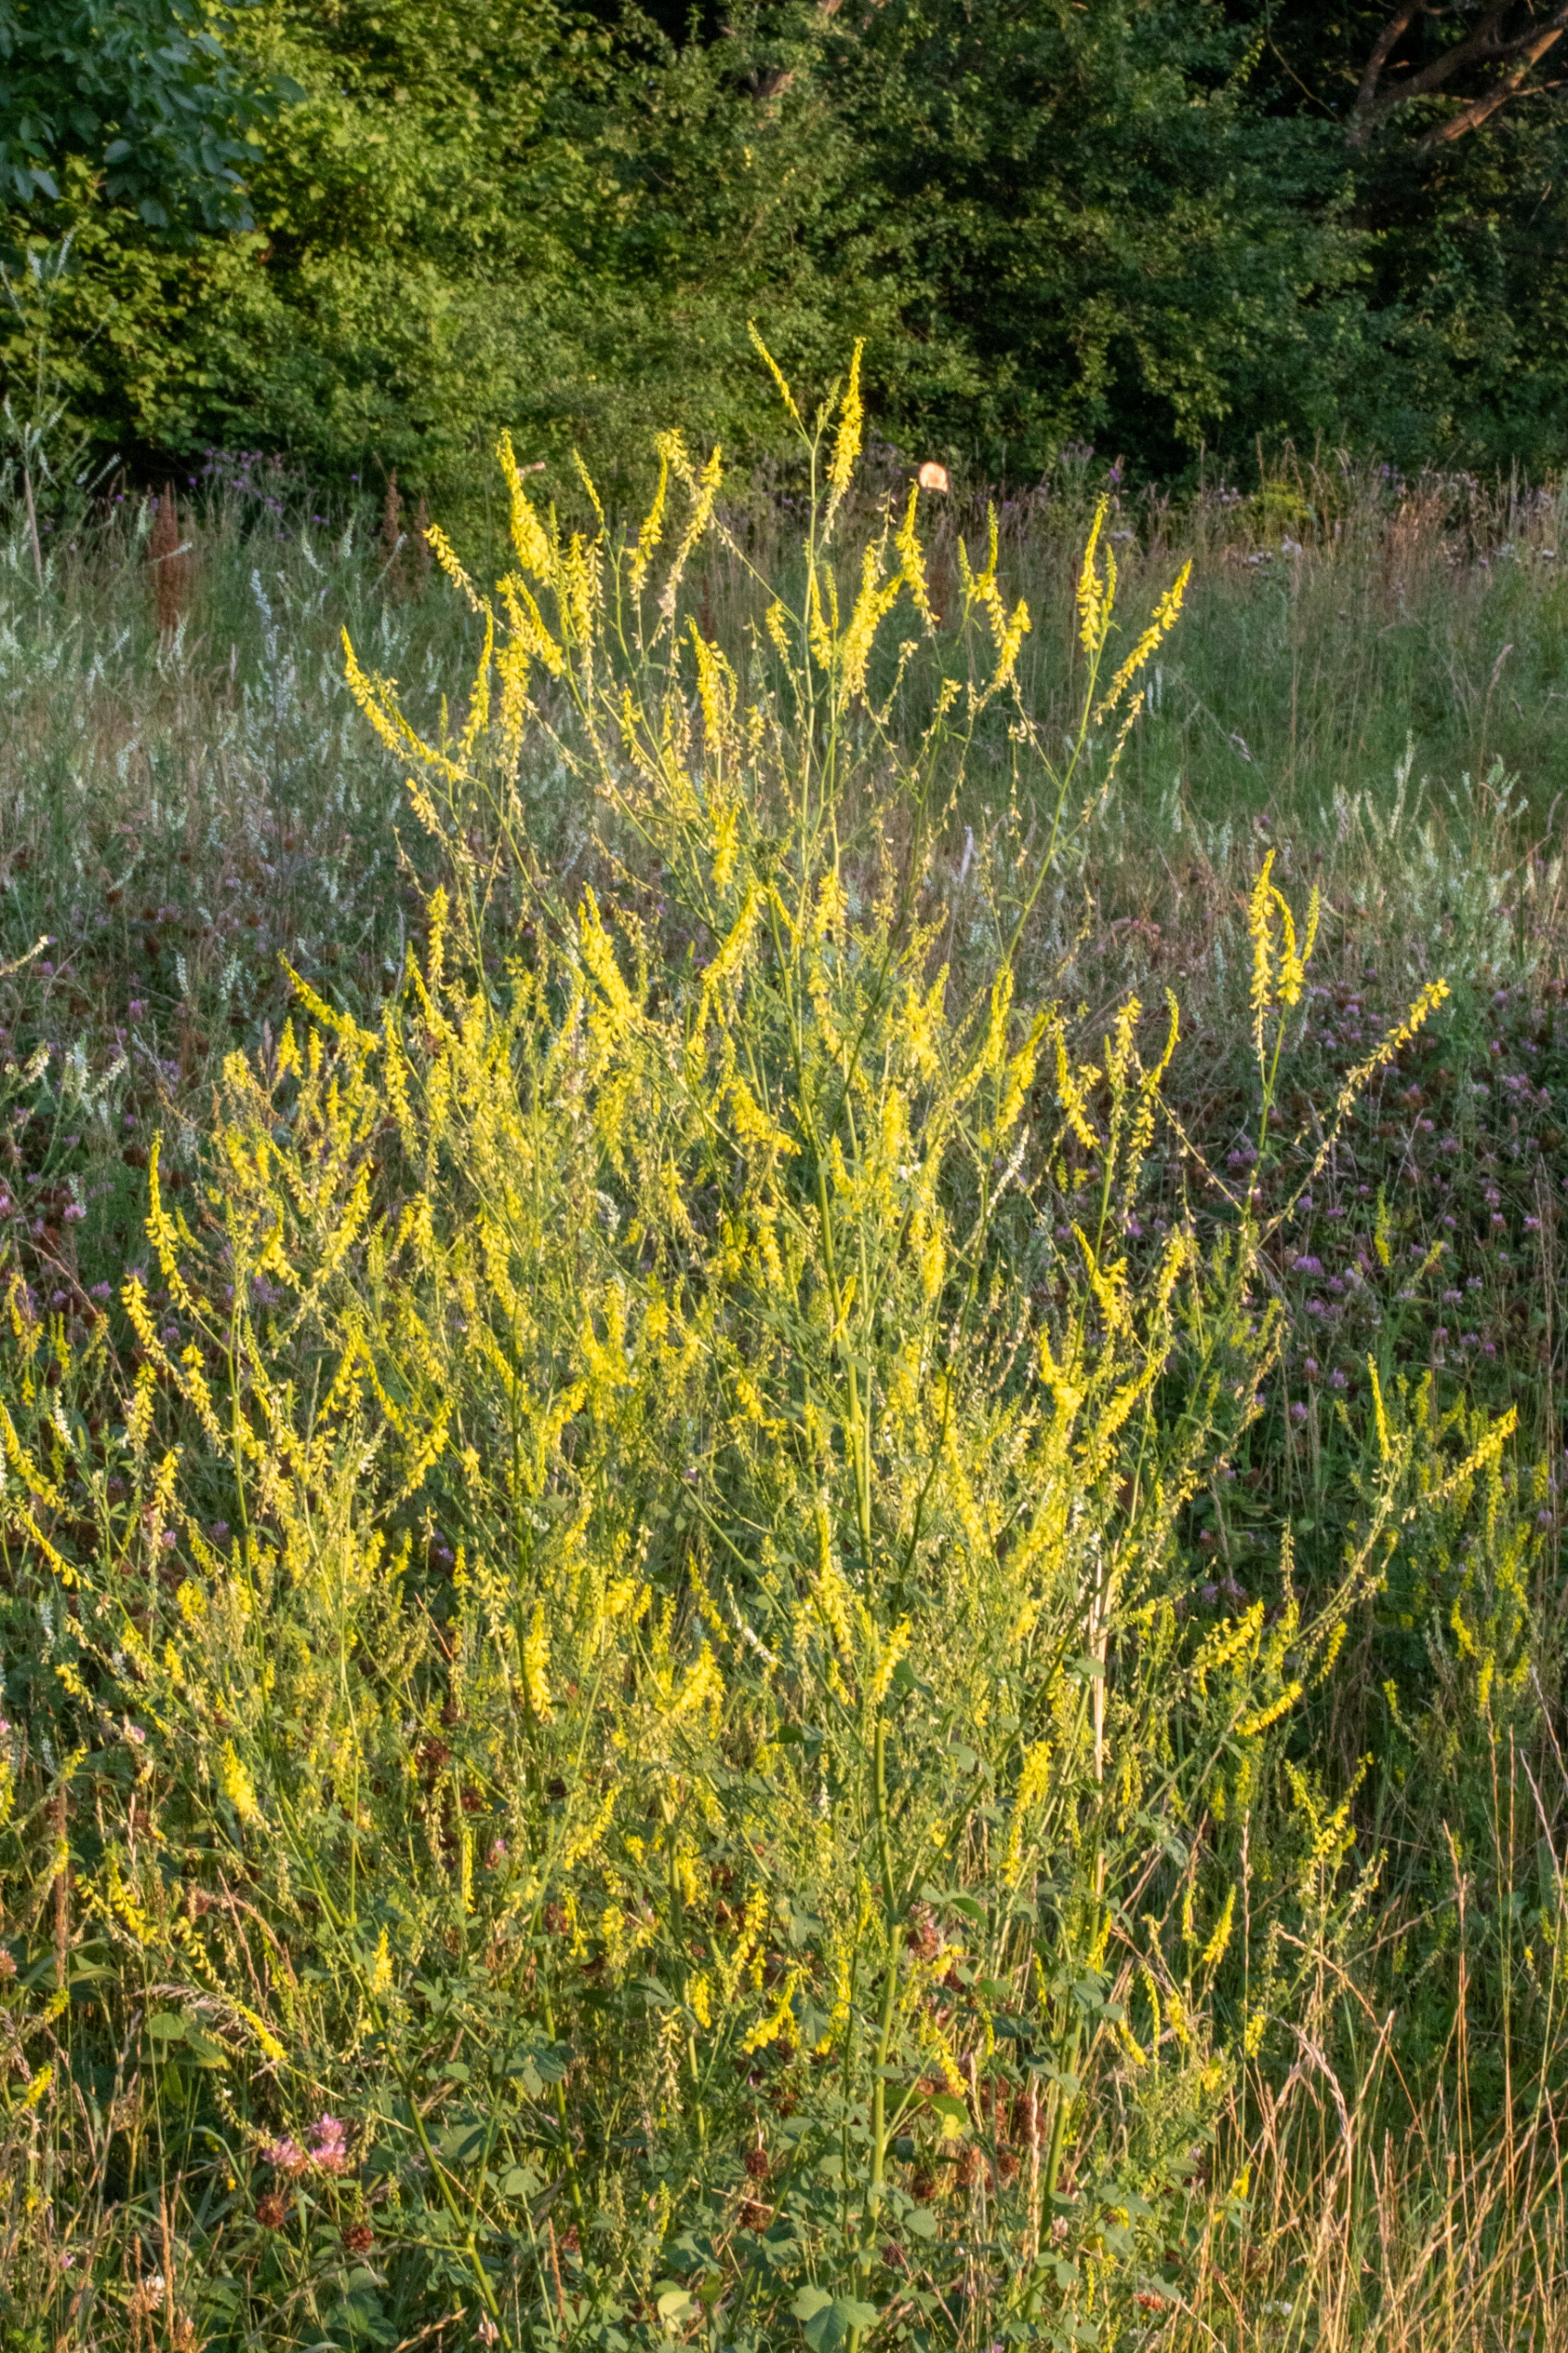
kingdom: Plantae
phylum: Tracheophyta
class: Magnoliopsida
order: Fabales
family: Fabaceae
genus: Melilotus
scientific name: Melilotus officinalis
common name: Mark-stenkløver
